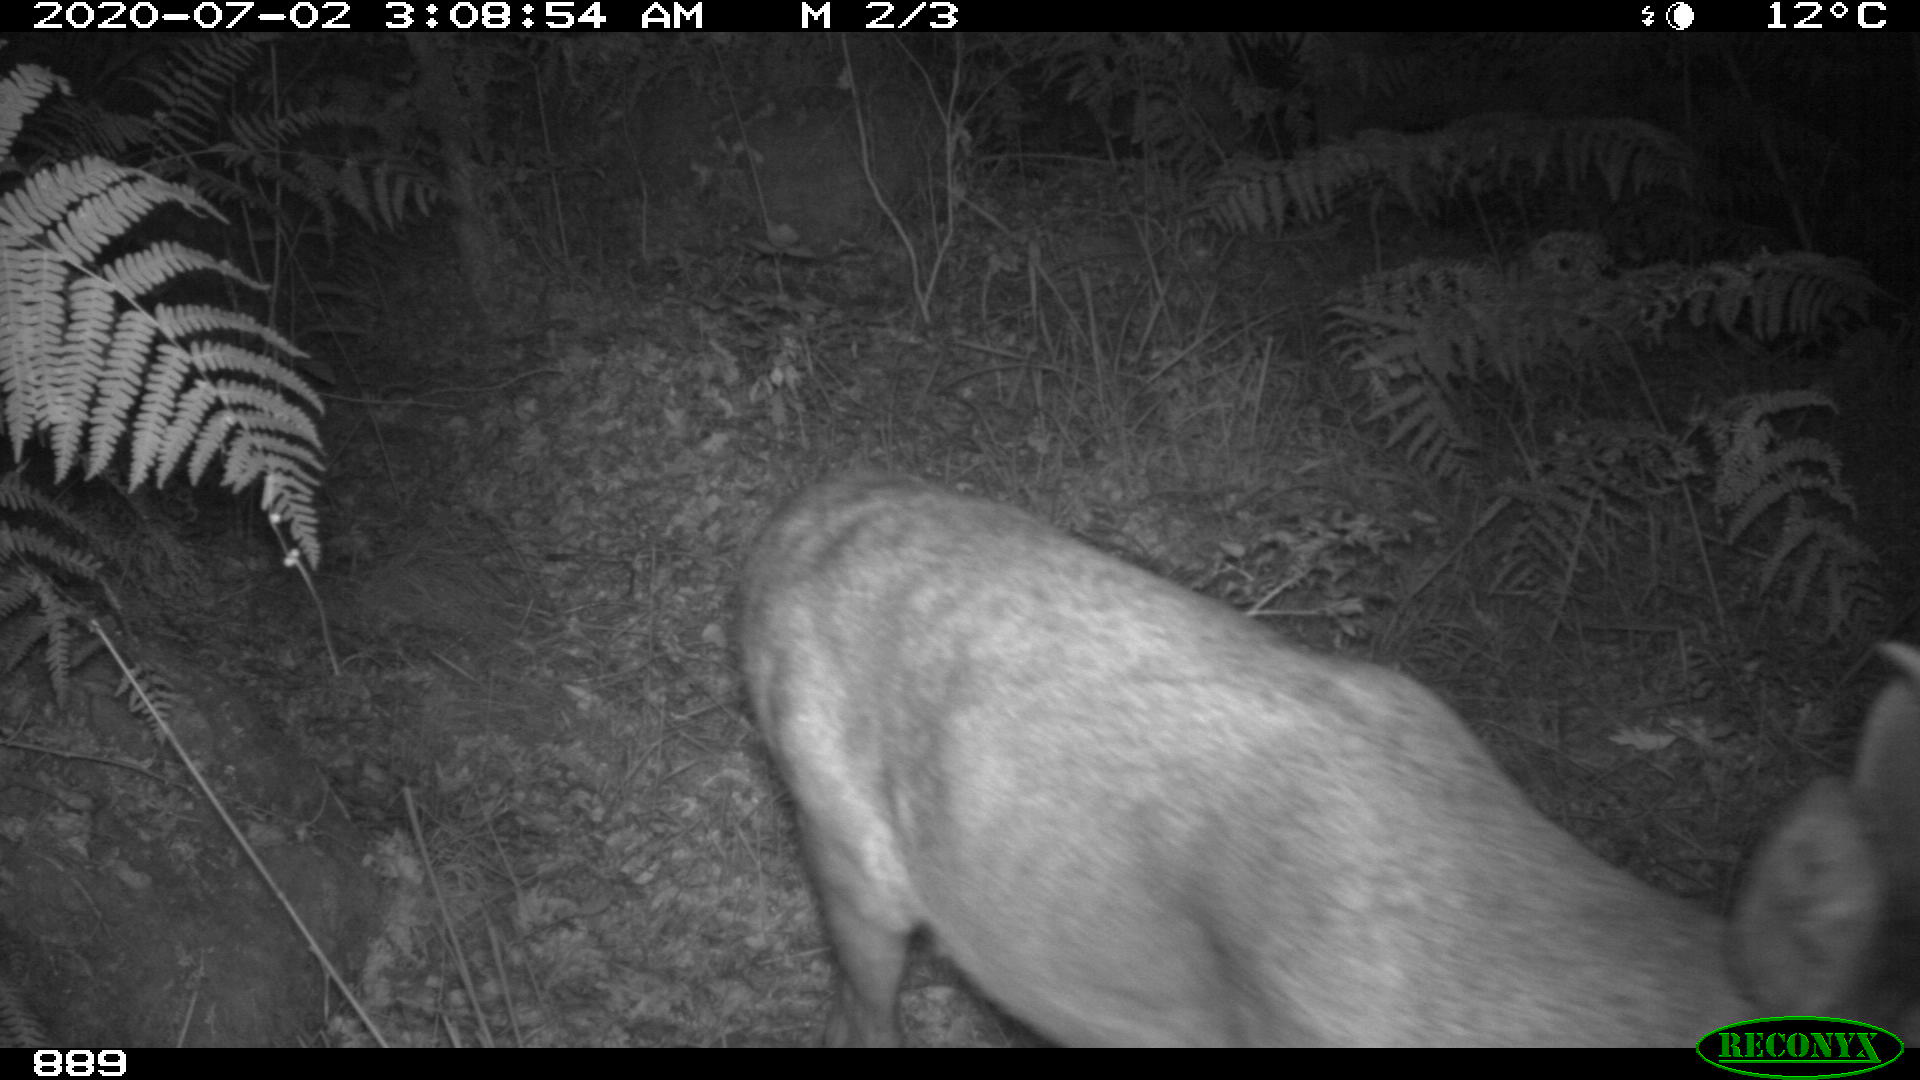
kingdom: Animalia
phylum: Chordata
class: Mammalia
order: Artiodactyla
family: Cervidae
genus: Capreolus
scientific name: Capreolus capreolus
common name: Western roe deer
